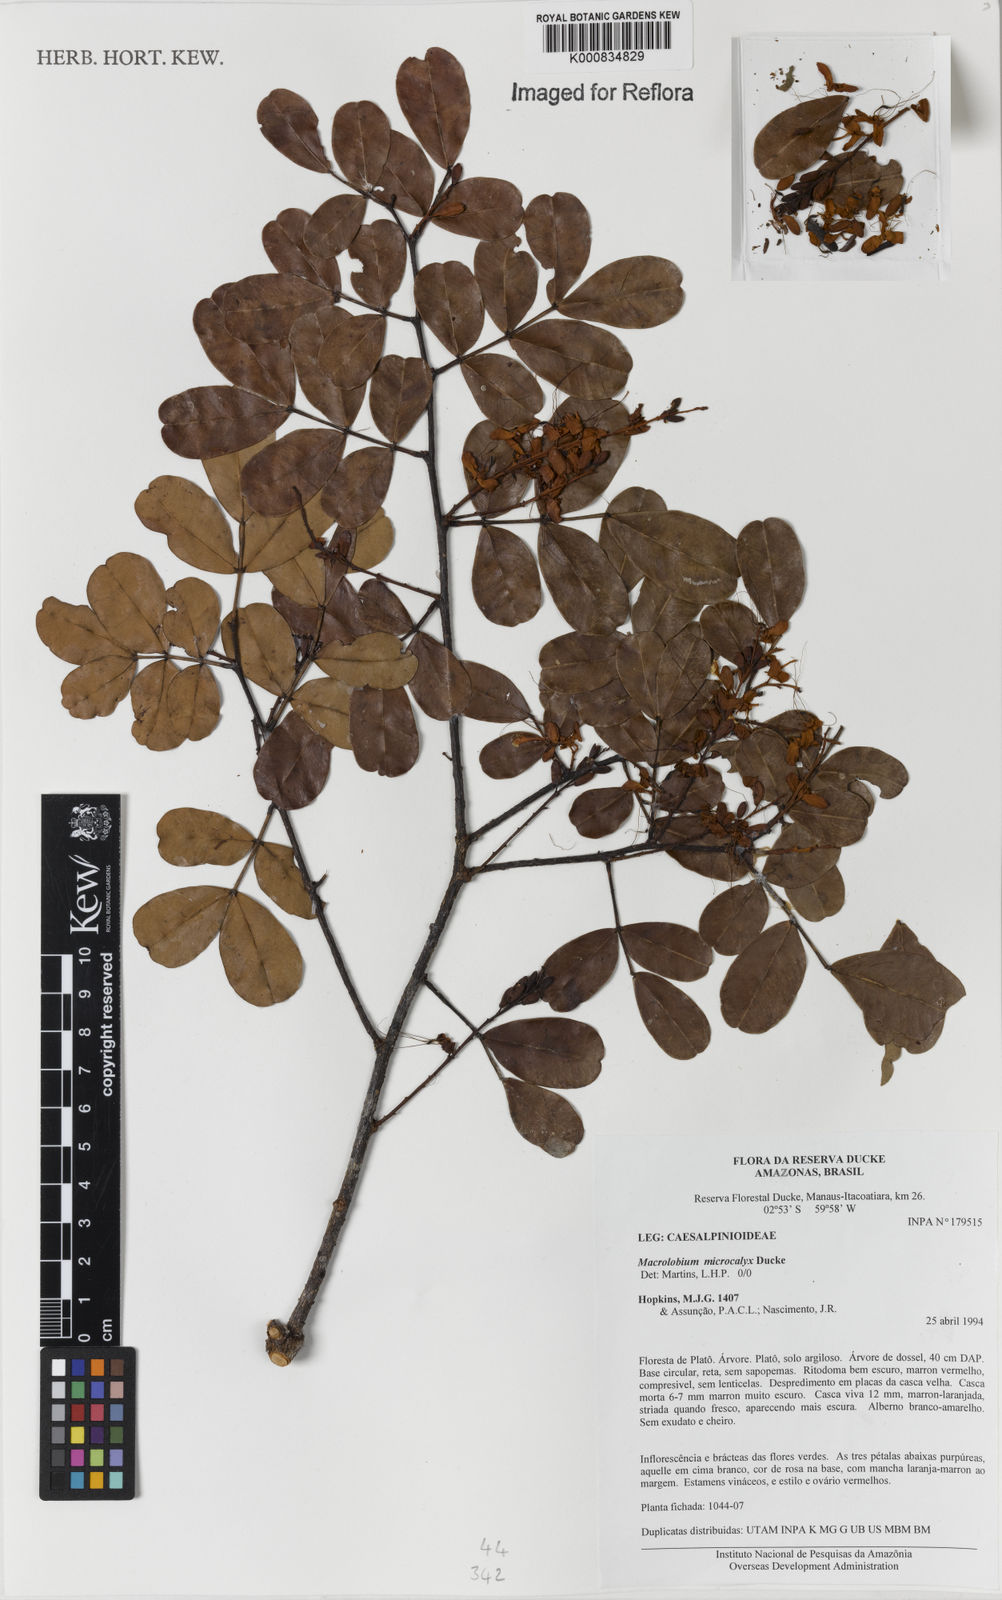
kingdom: Plantae
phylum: Tracheophyta
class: Magnoliopsida
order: Fabales
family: Fabaceae
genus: Macrolobium
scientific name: Macrolobium microcalyx
